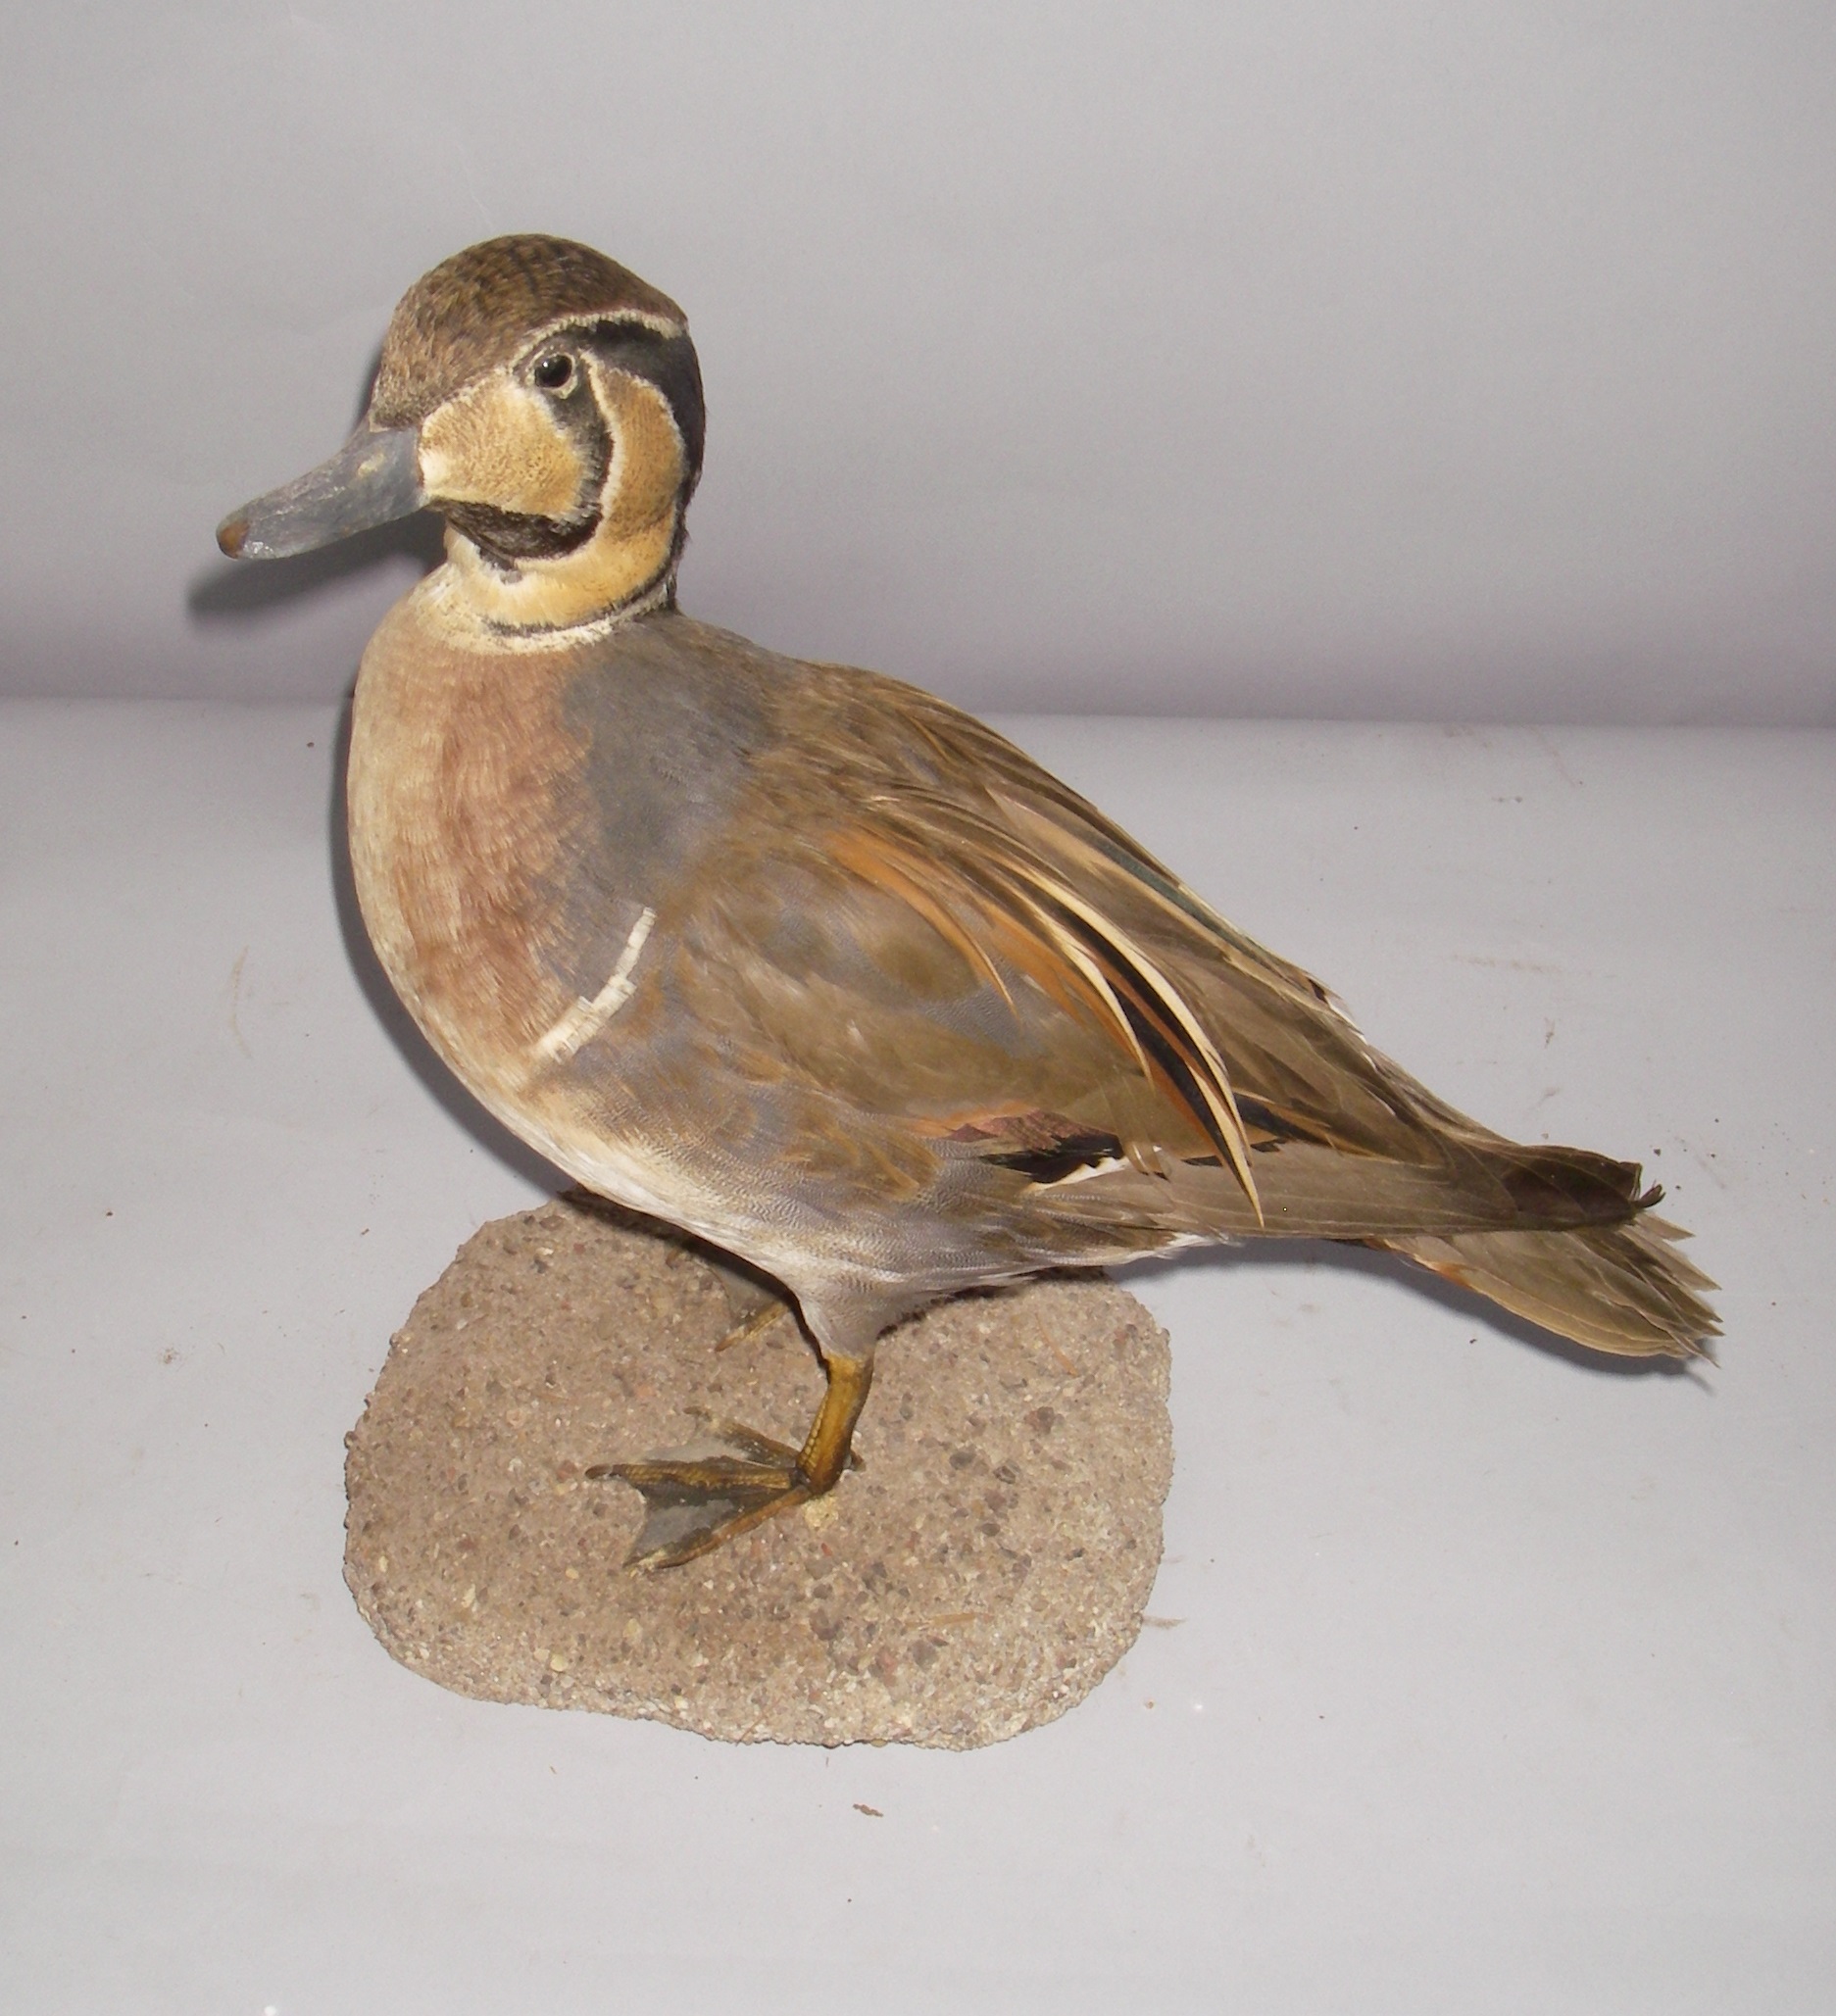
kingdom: Animalia
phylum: Chordata
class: Aves
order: Anseriformes
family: Anatidae
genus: Sibirionetta
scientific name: Sibirionetta formosa
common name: Baikal teal
